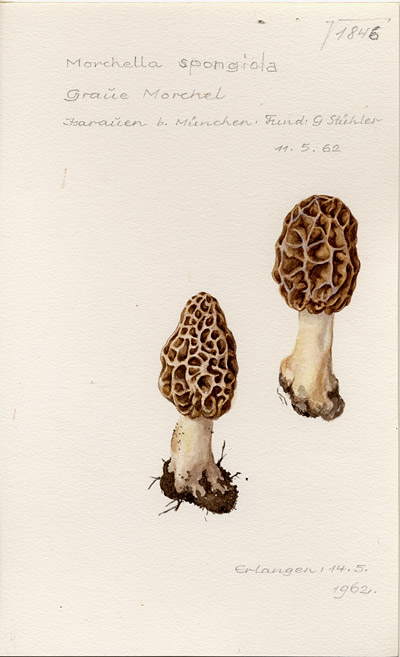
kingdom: Fungi
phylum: Ascomycota
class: Pezizomycetes
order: Pezizales
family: Morchellaceae
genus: Morchella
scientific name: Morchella esculenta
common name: Morel
